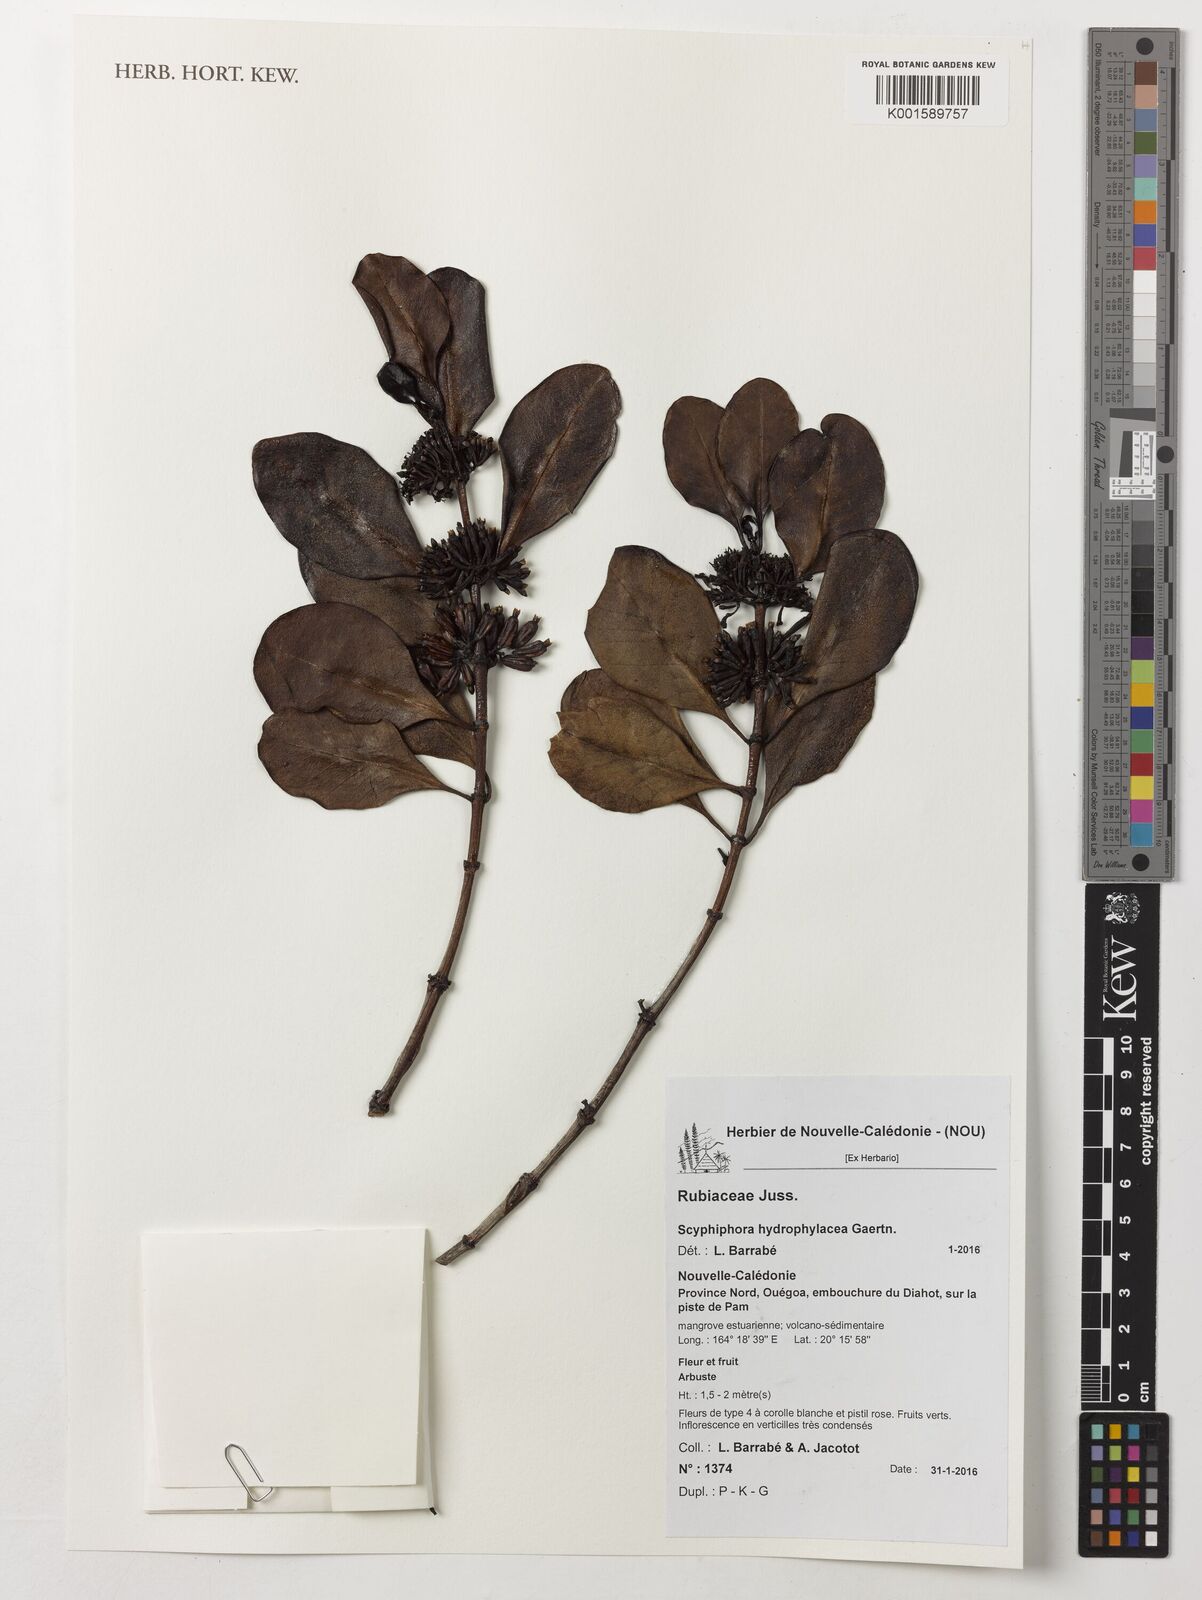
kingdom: Plantae
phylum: Tracheophyta
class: Magnoliopsida
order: Gentianales
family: Rubiaceae
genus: Scyphiphora
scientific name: Scyphiphora hydrophylacea
